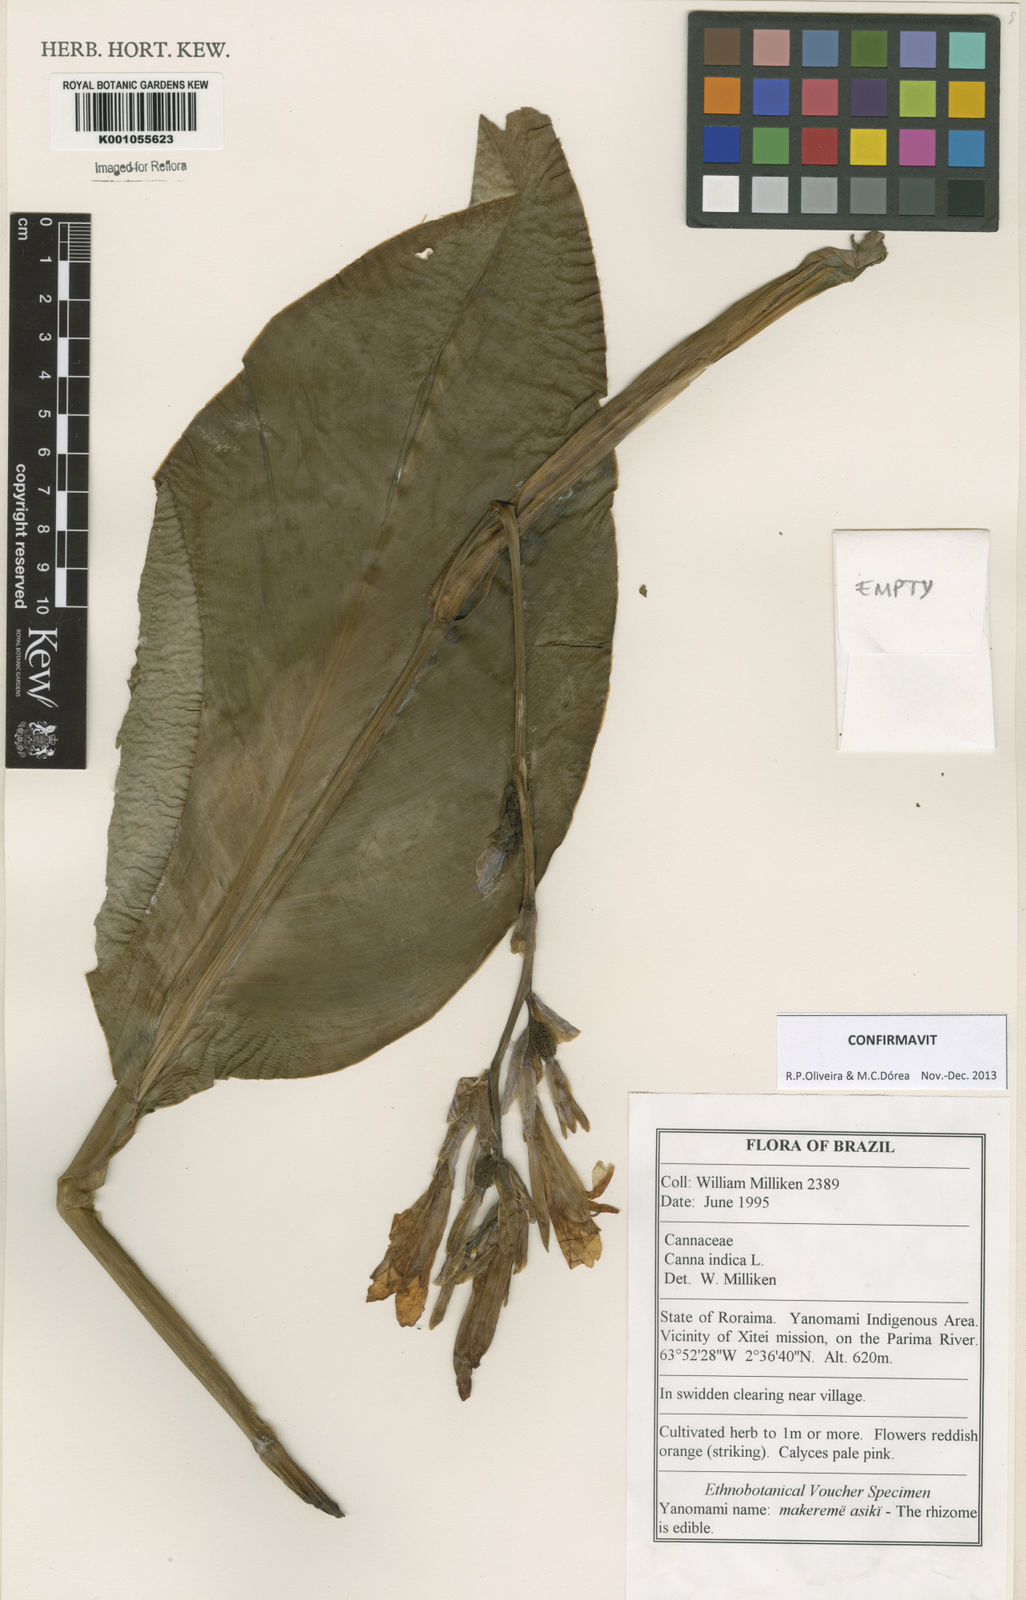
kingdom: Plantae
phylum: Tracheophyta
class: Liliopsida
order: Zingiberales
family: Cannaceae
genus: Canna
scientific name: Canna indica
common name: Indian shot
